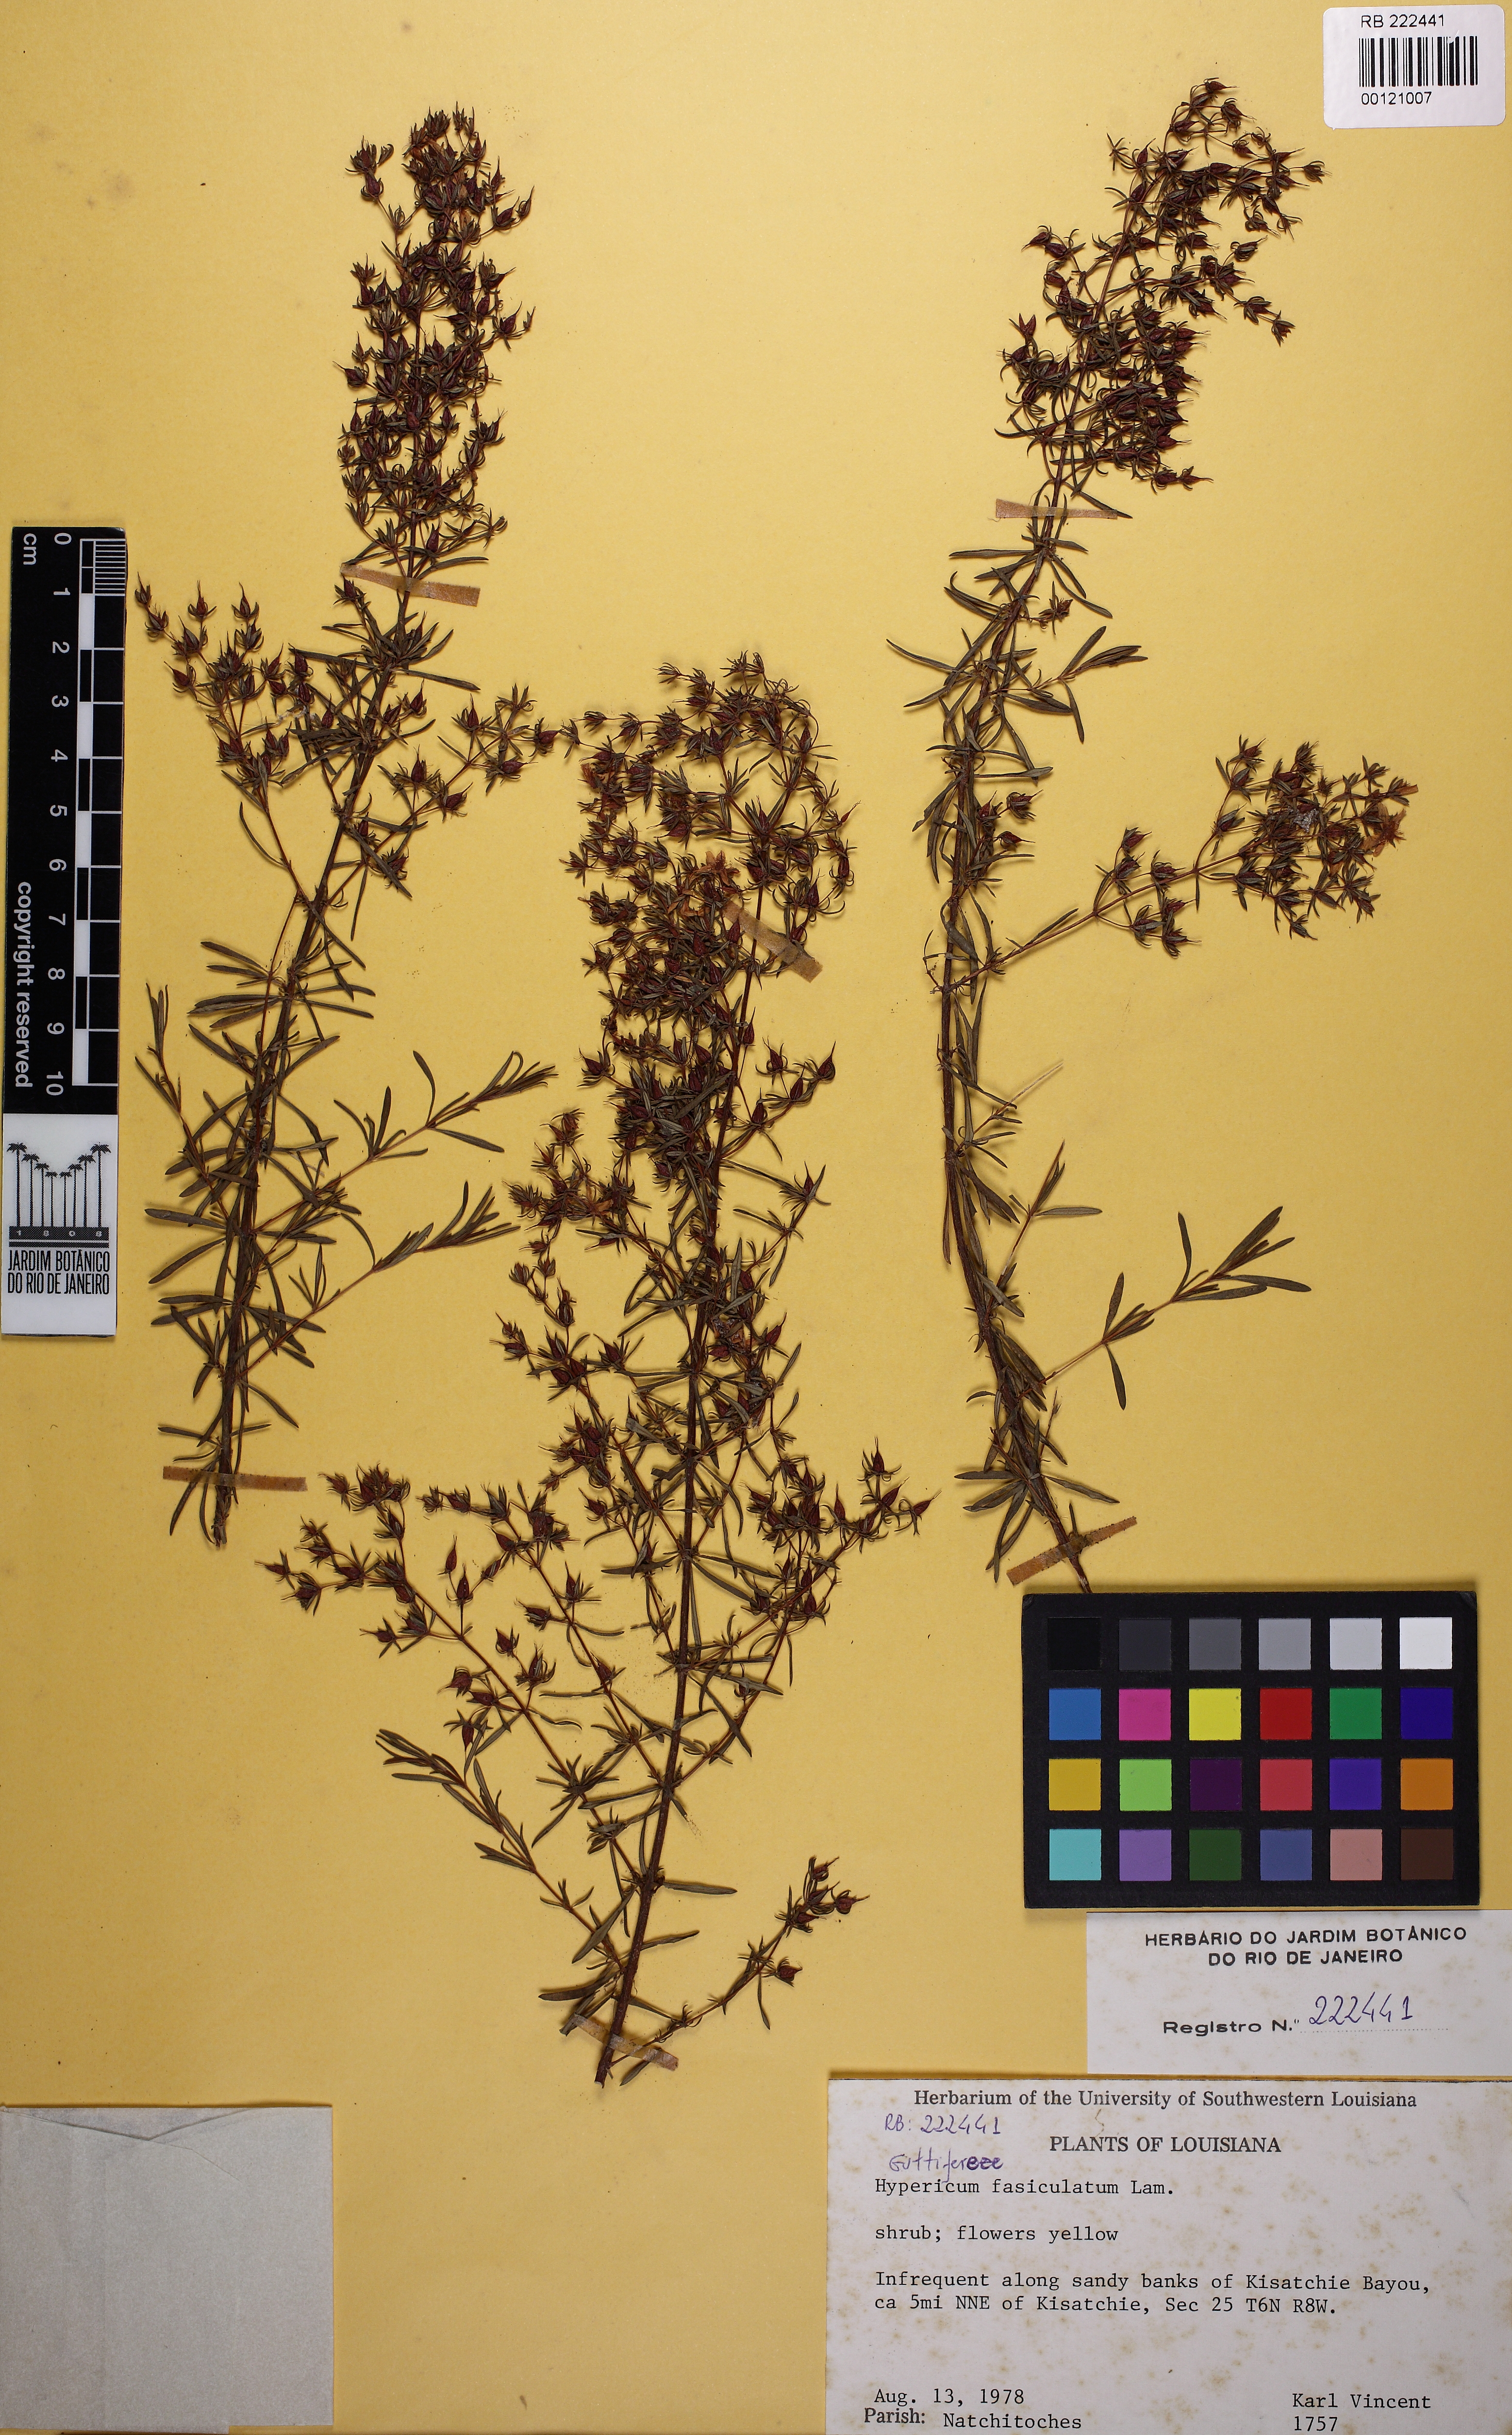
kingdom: Plantae
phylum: Tracheophyta
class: Magnoliopsida
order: Malpighiales
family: Hypericaceae
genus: Hypericum
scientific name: Hypericum fasciculatum
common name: Peelbark st. john's wort
